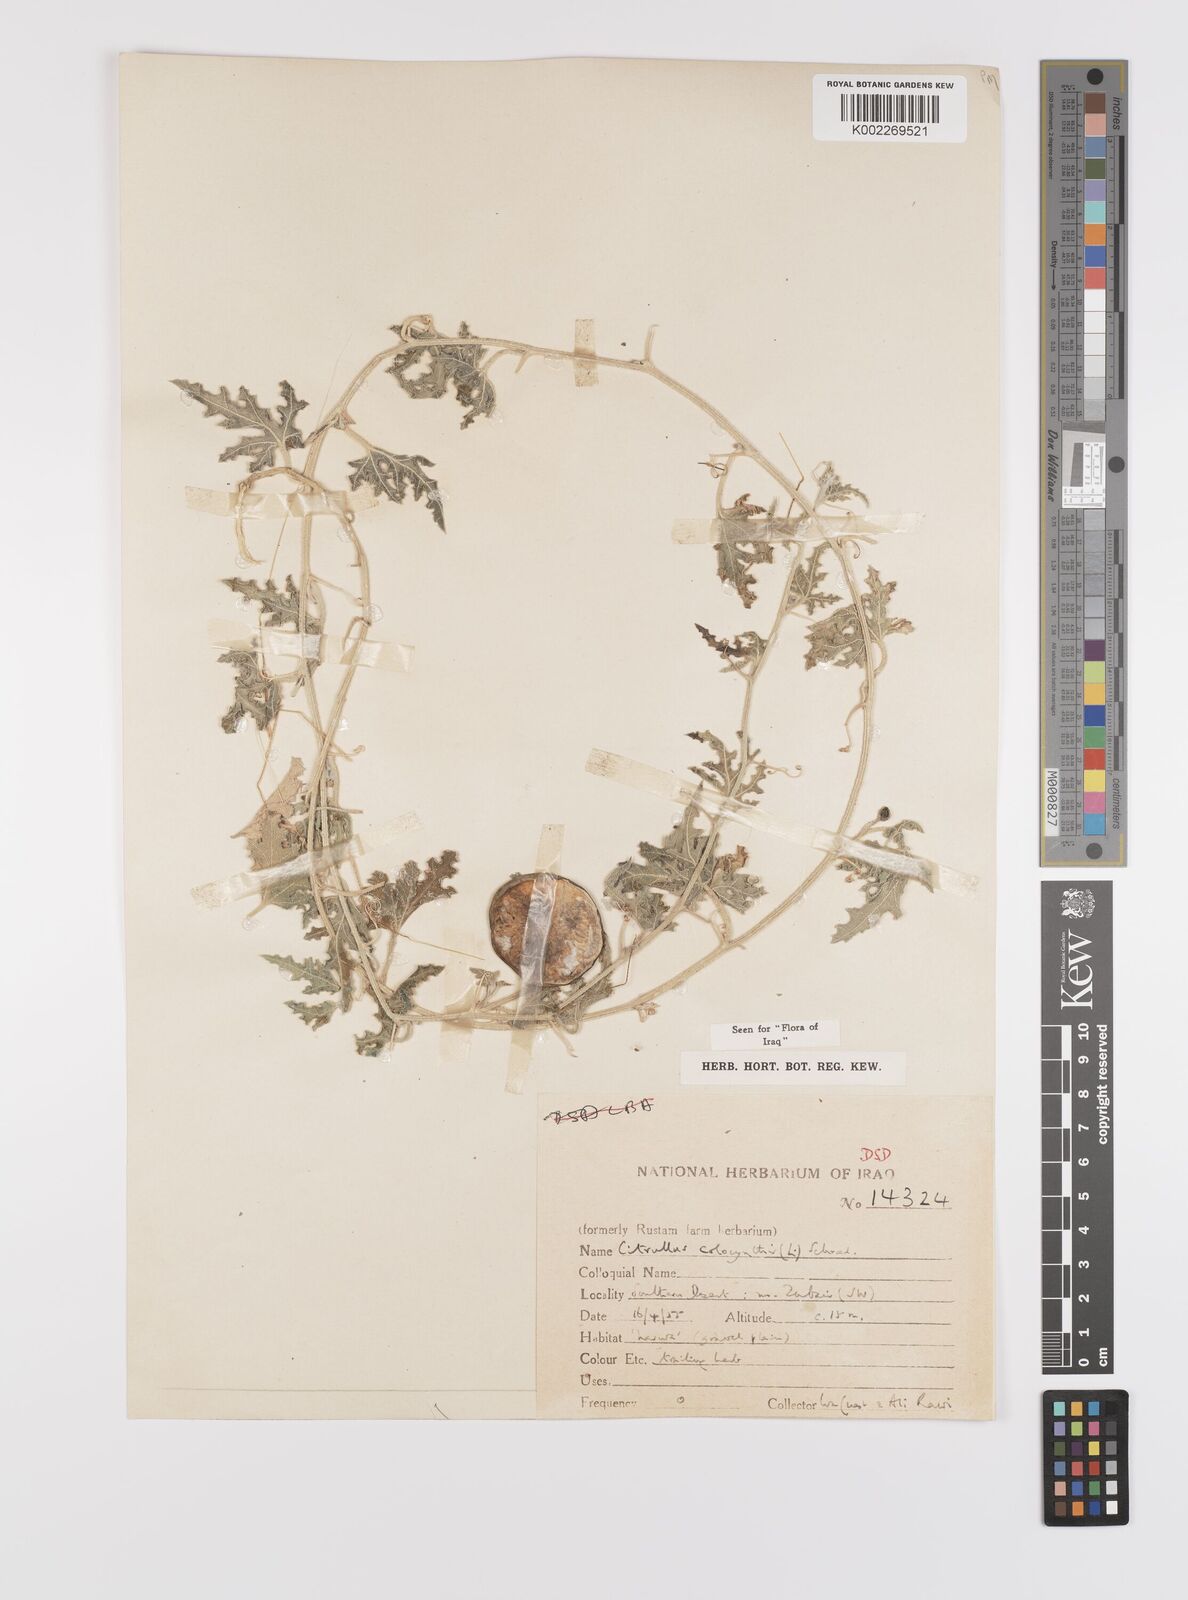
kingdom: Plantae
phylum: Tracheophyta
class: Magnoliopsida
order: Cucurbitales
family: Cucurbitaceae
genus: Citrullus
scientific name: Citrullus colocynthis
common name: Colocynth
